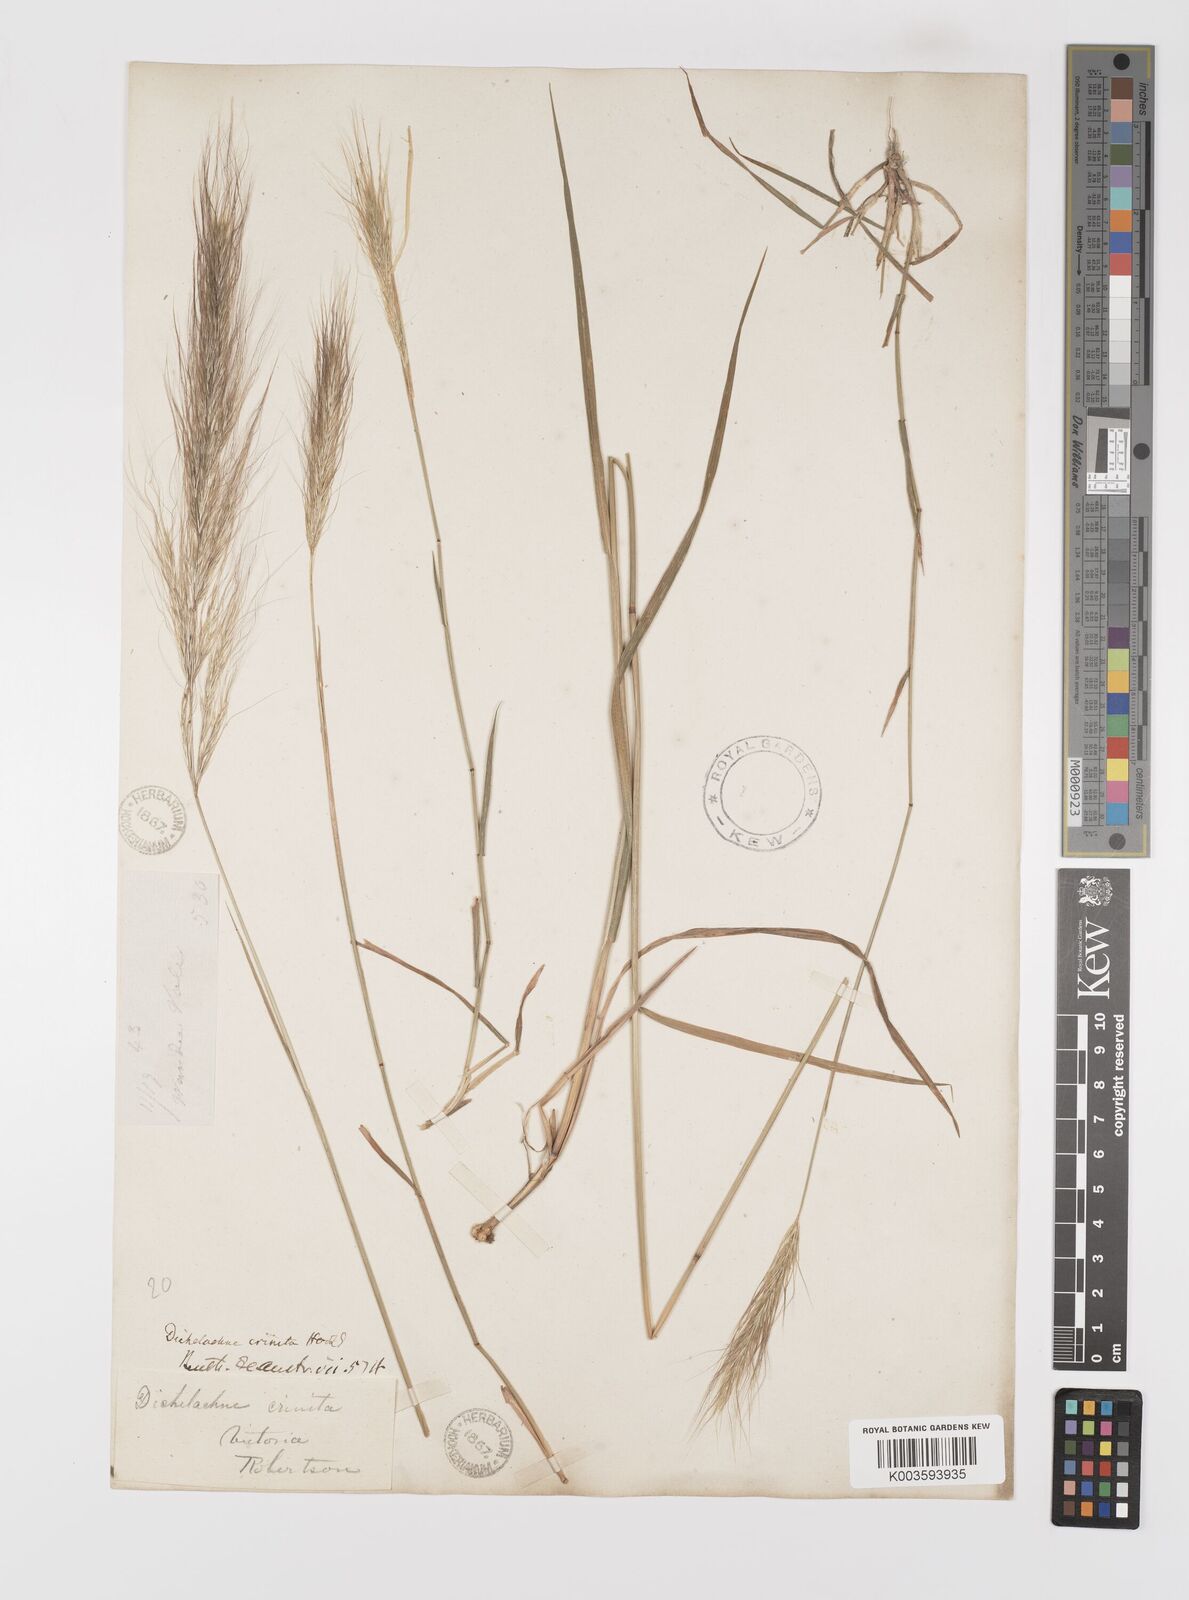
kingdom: Plantae
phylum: Tracheophyta
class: Liliopsida
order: Poales
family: Poaceae
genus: Dichelachne
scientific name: Dichelachne crinita
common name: Clovenfoot plumegrass
